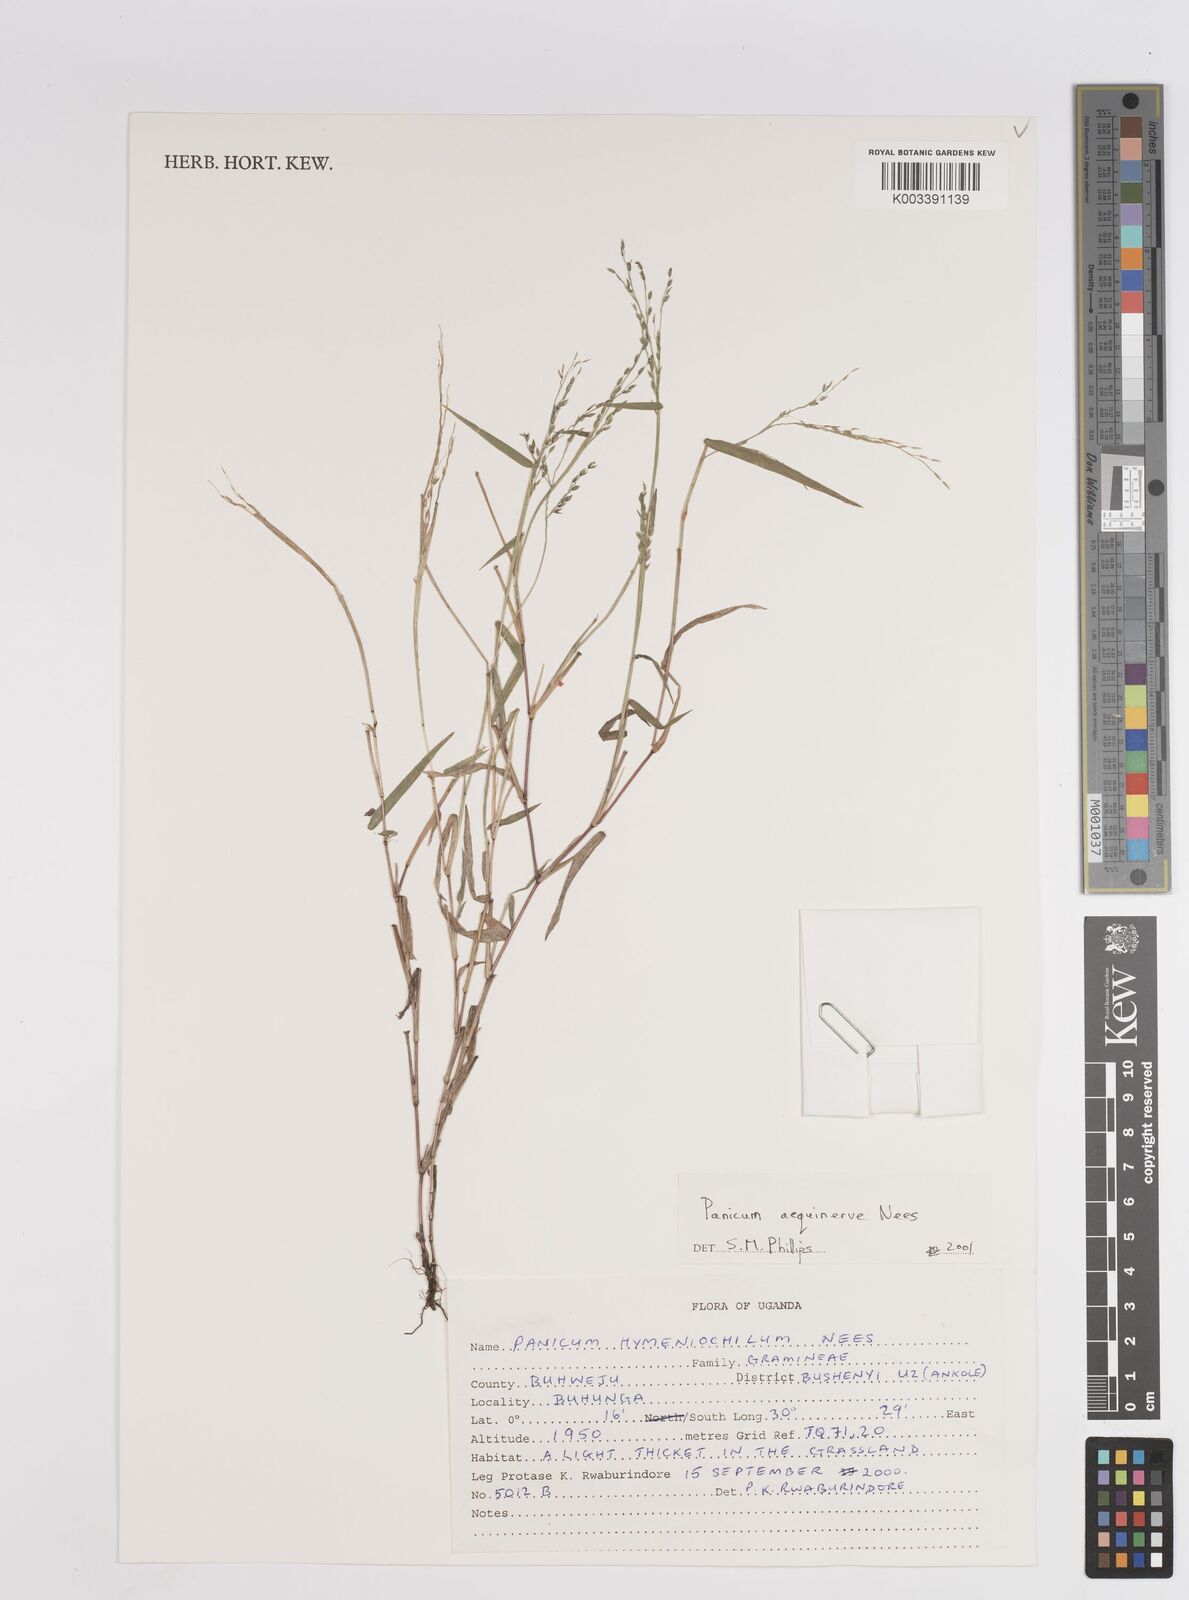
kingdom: Plantae
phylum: Tracheophyta
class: Liliopsida
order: Poales
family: Poaceae
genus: Panicum
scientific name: Panicum aequinerve
